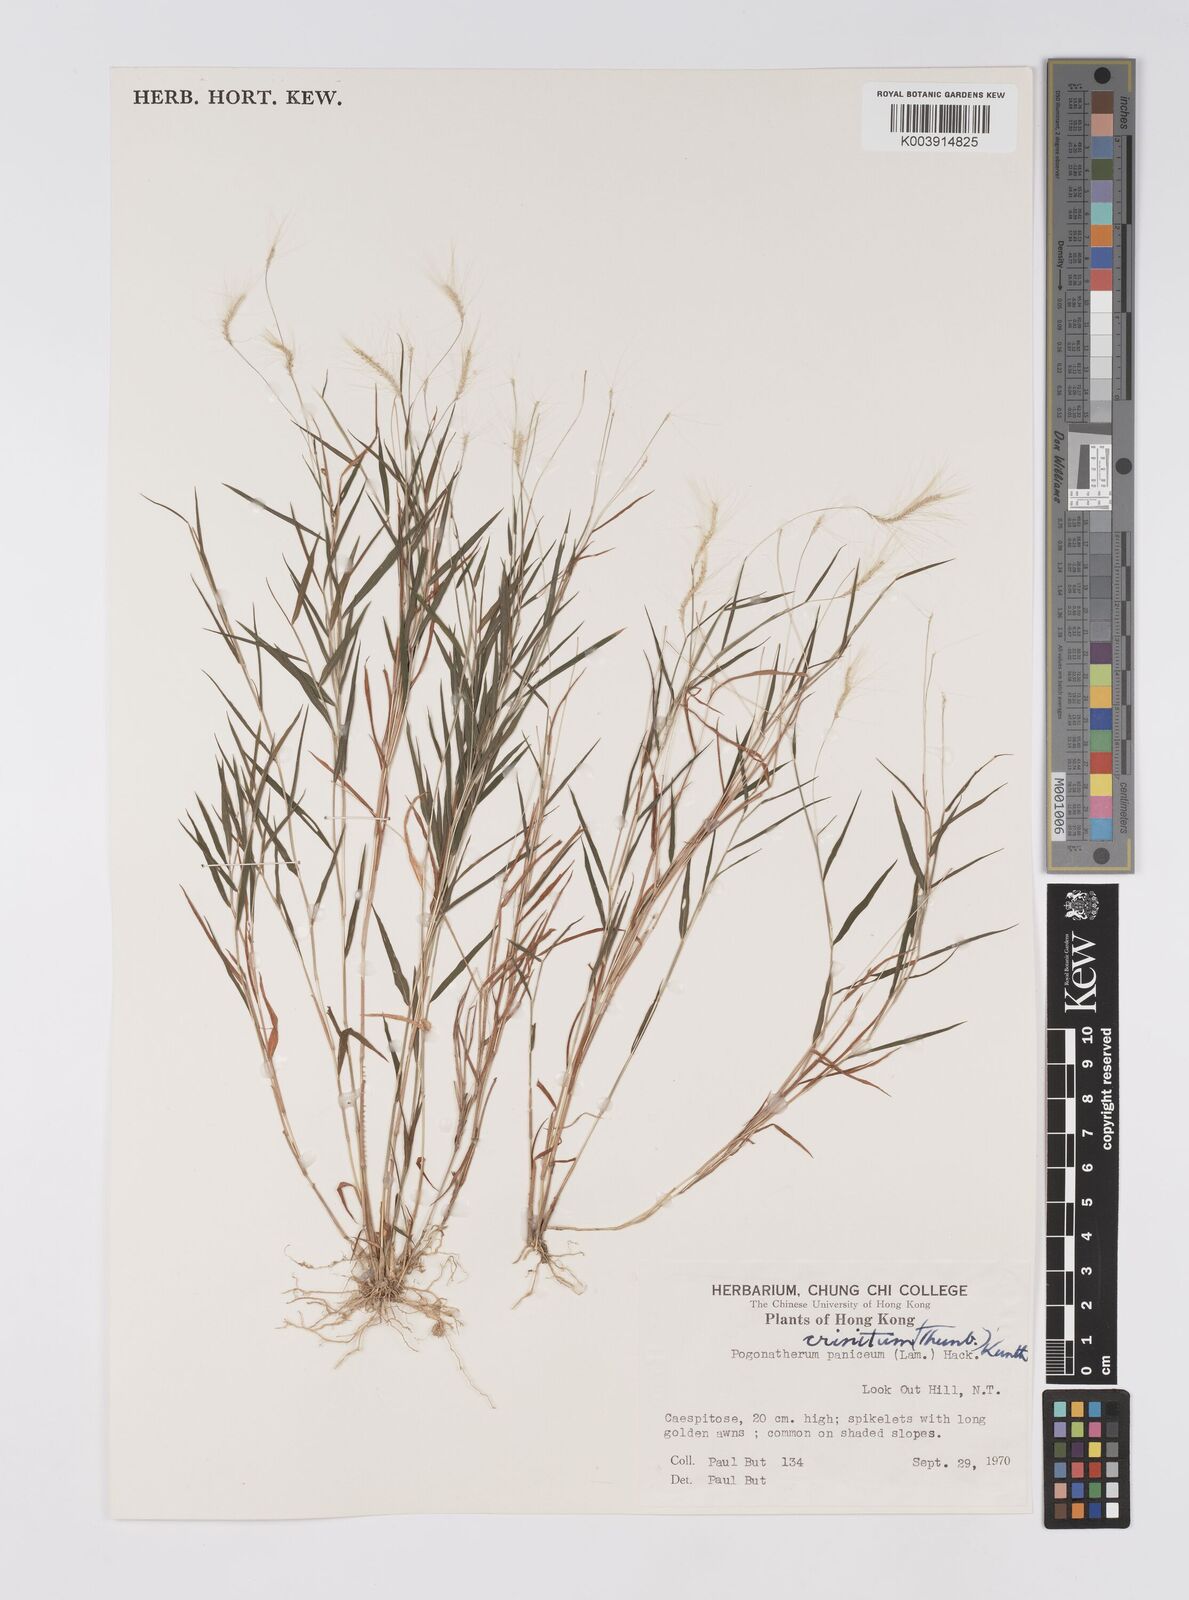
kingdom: Plantae
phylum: Tracheophyta
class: Liliopsida
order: Poales
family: Poaceae
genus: Pogonatherum
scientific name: Pogonatherum crinitum
